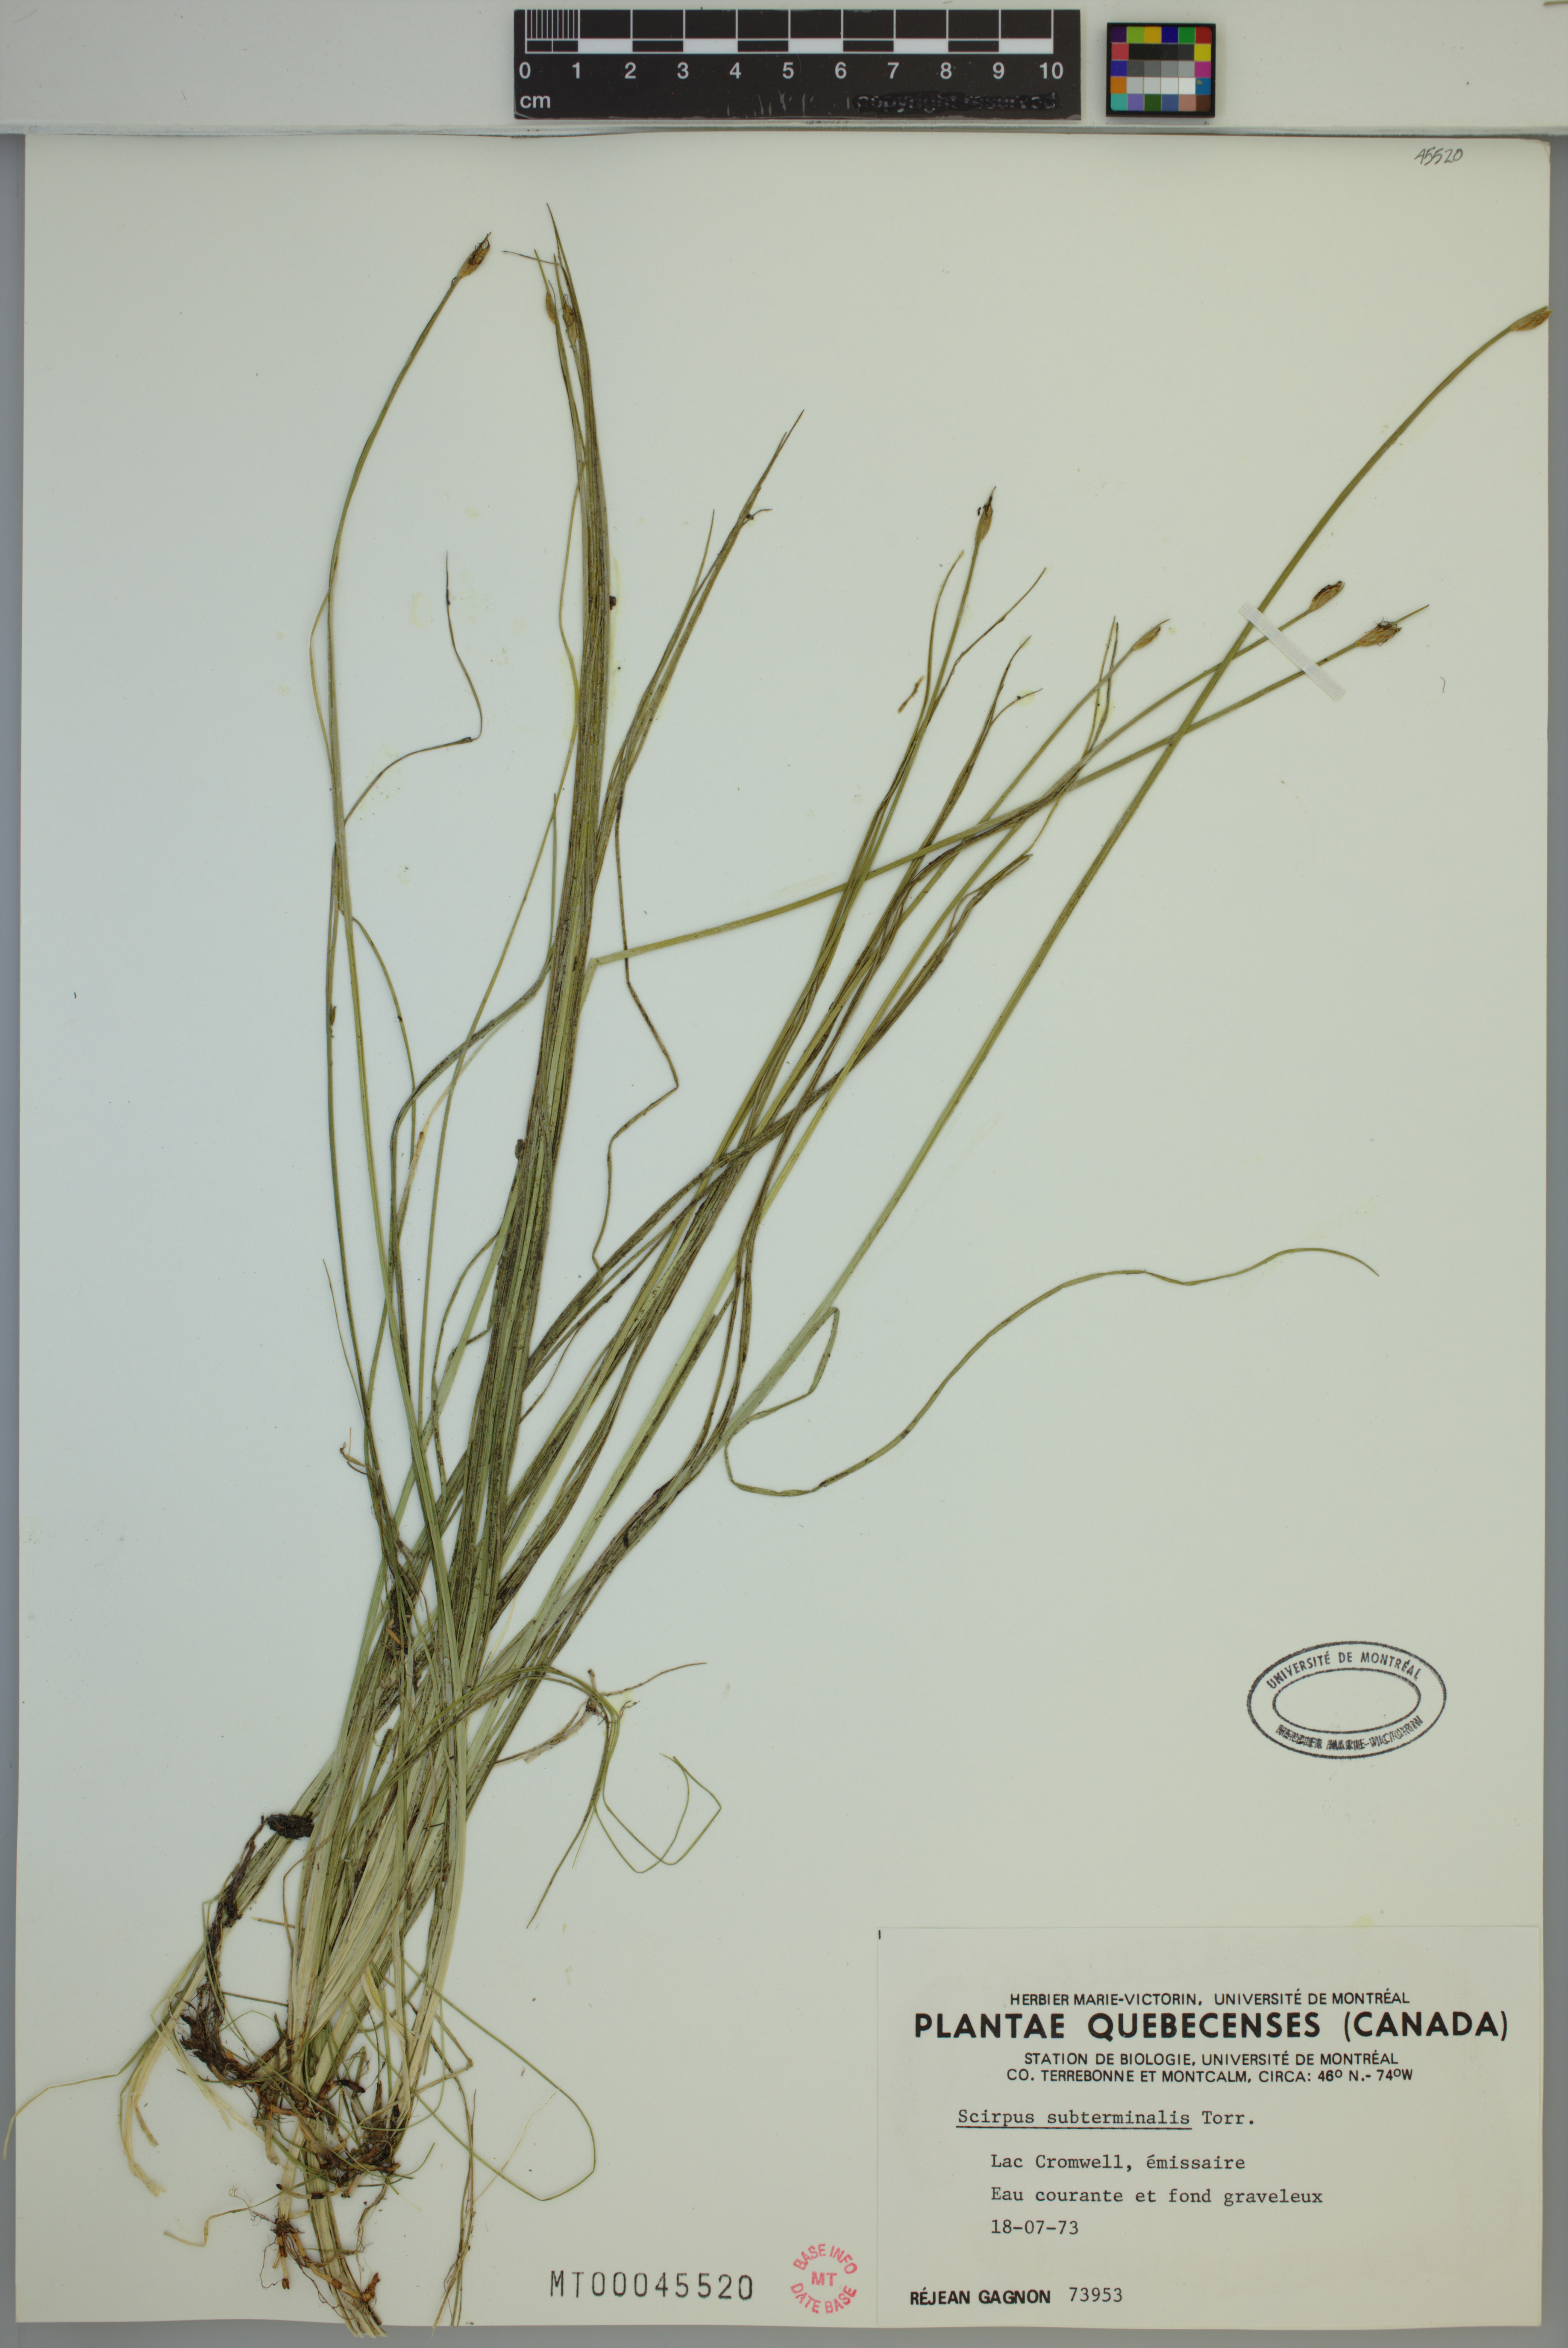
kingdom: Plantae
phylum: Tracheophyta
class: Liliopsida
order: Poales
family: Cyperaceae
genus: Schoenoplectus
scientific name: Schoenoplectus subterminalis
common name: Swaying bulrush
